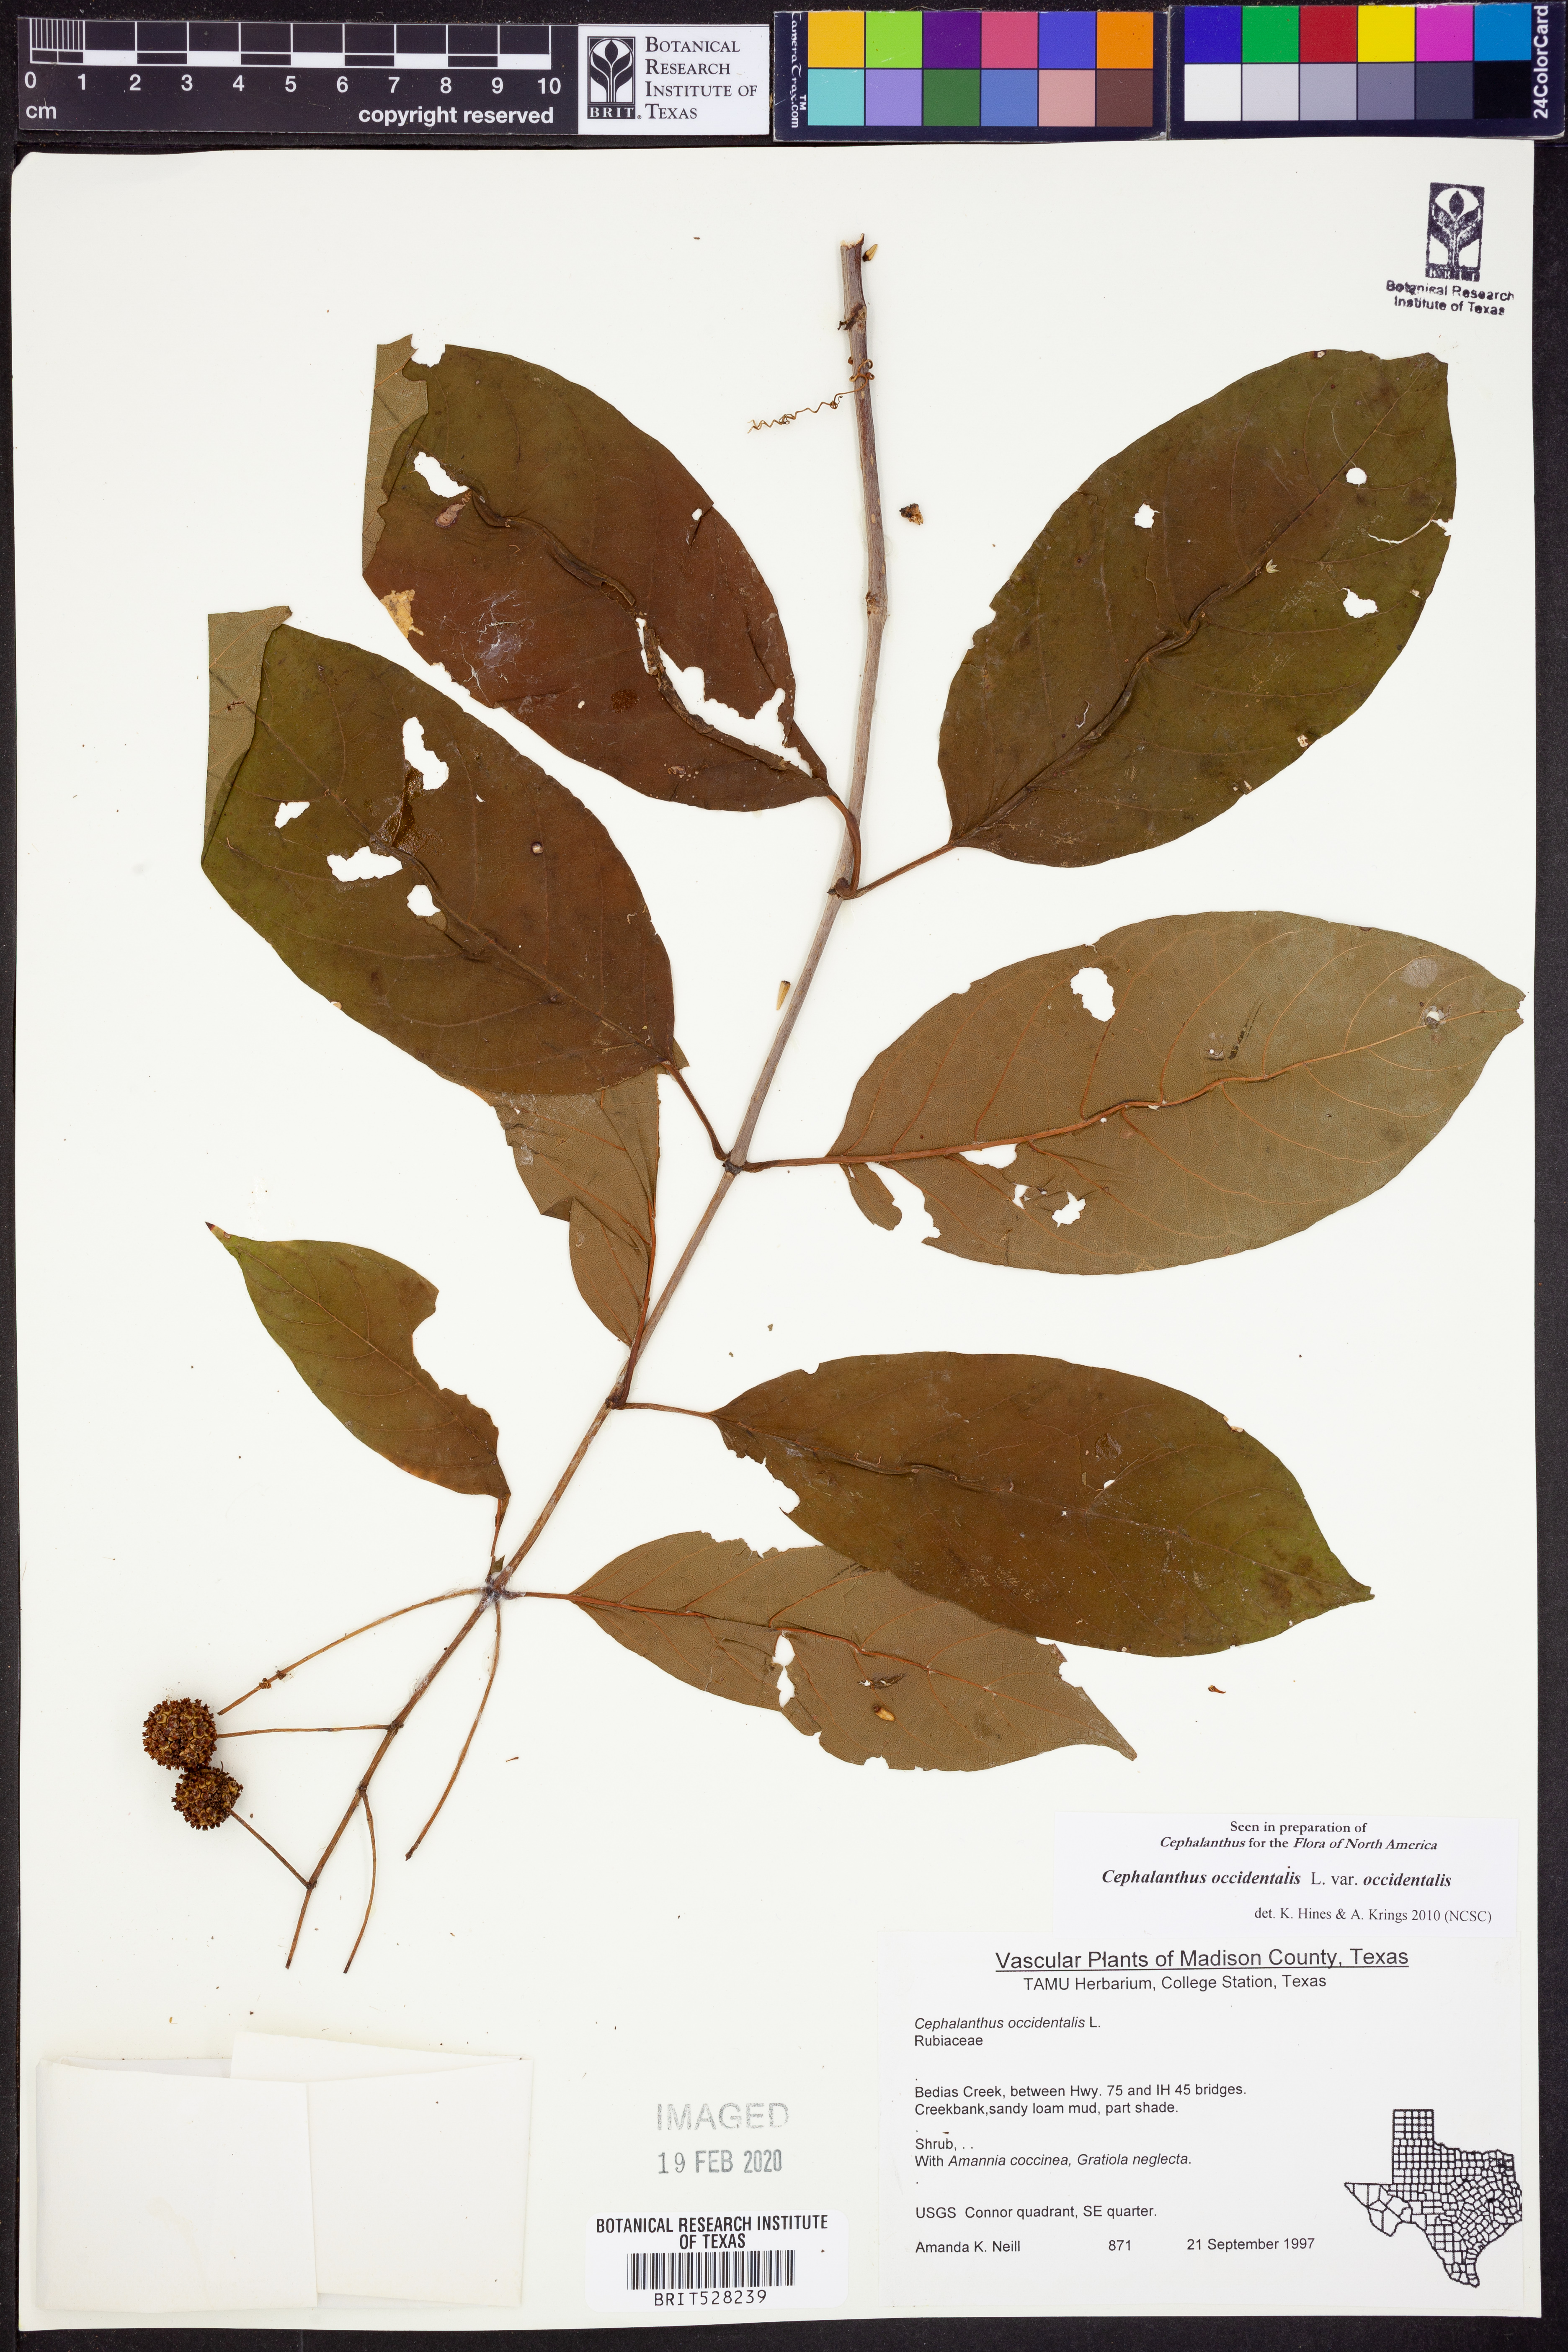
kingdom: Plantae
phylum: Tracheophyta
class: Magnoliopsida
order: Gentianales
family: Rubiaceae
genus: Cephalanthus
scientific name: Cephalanthus occidentalis
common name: Button-willow
